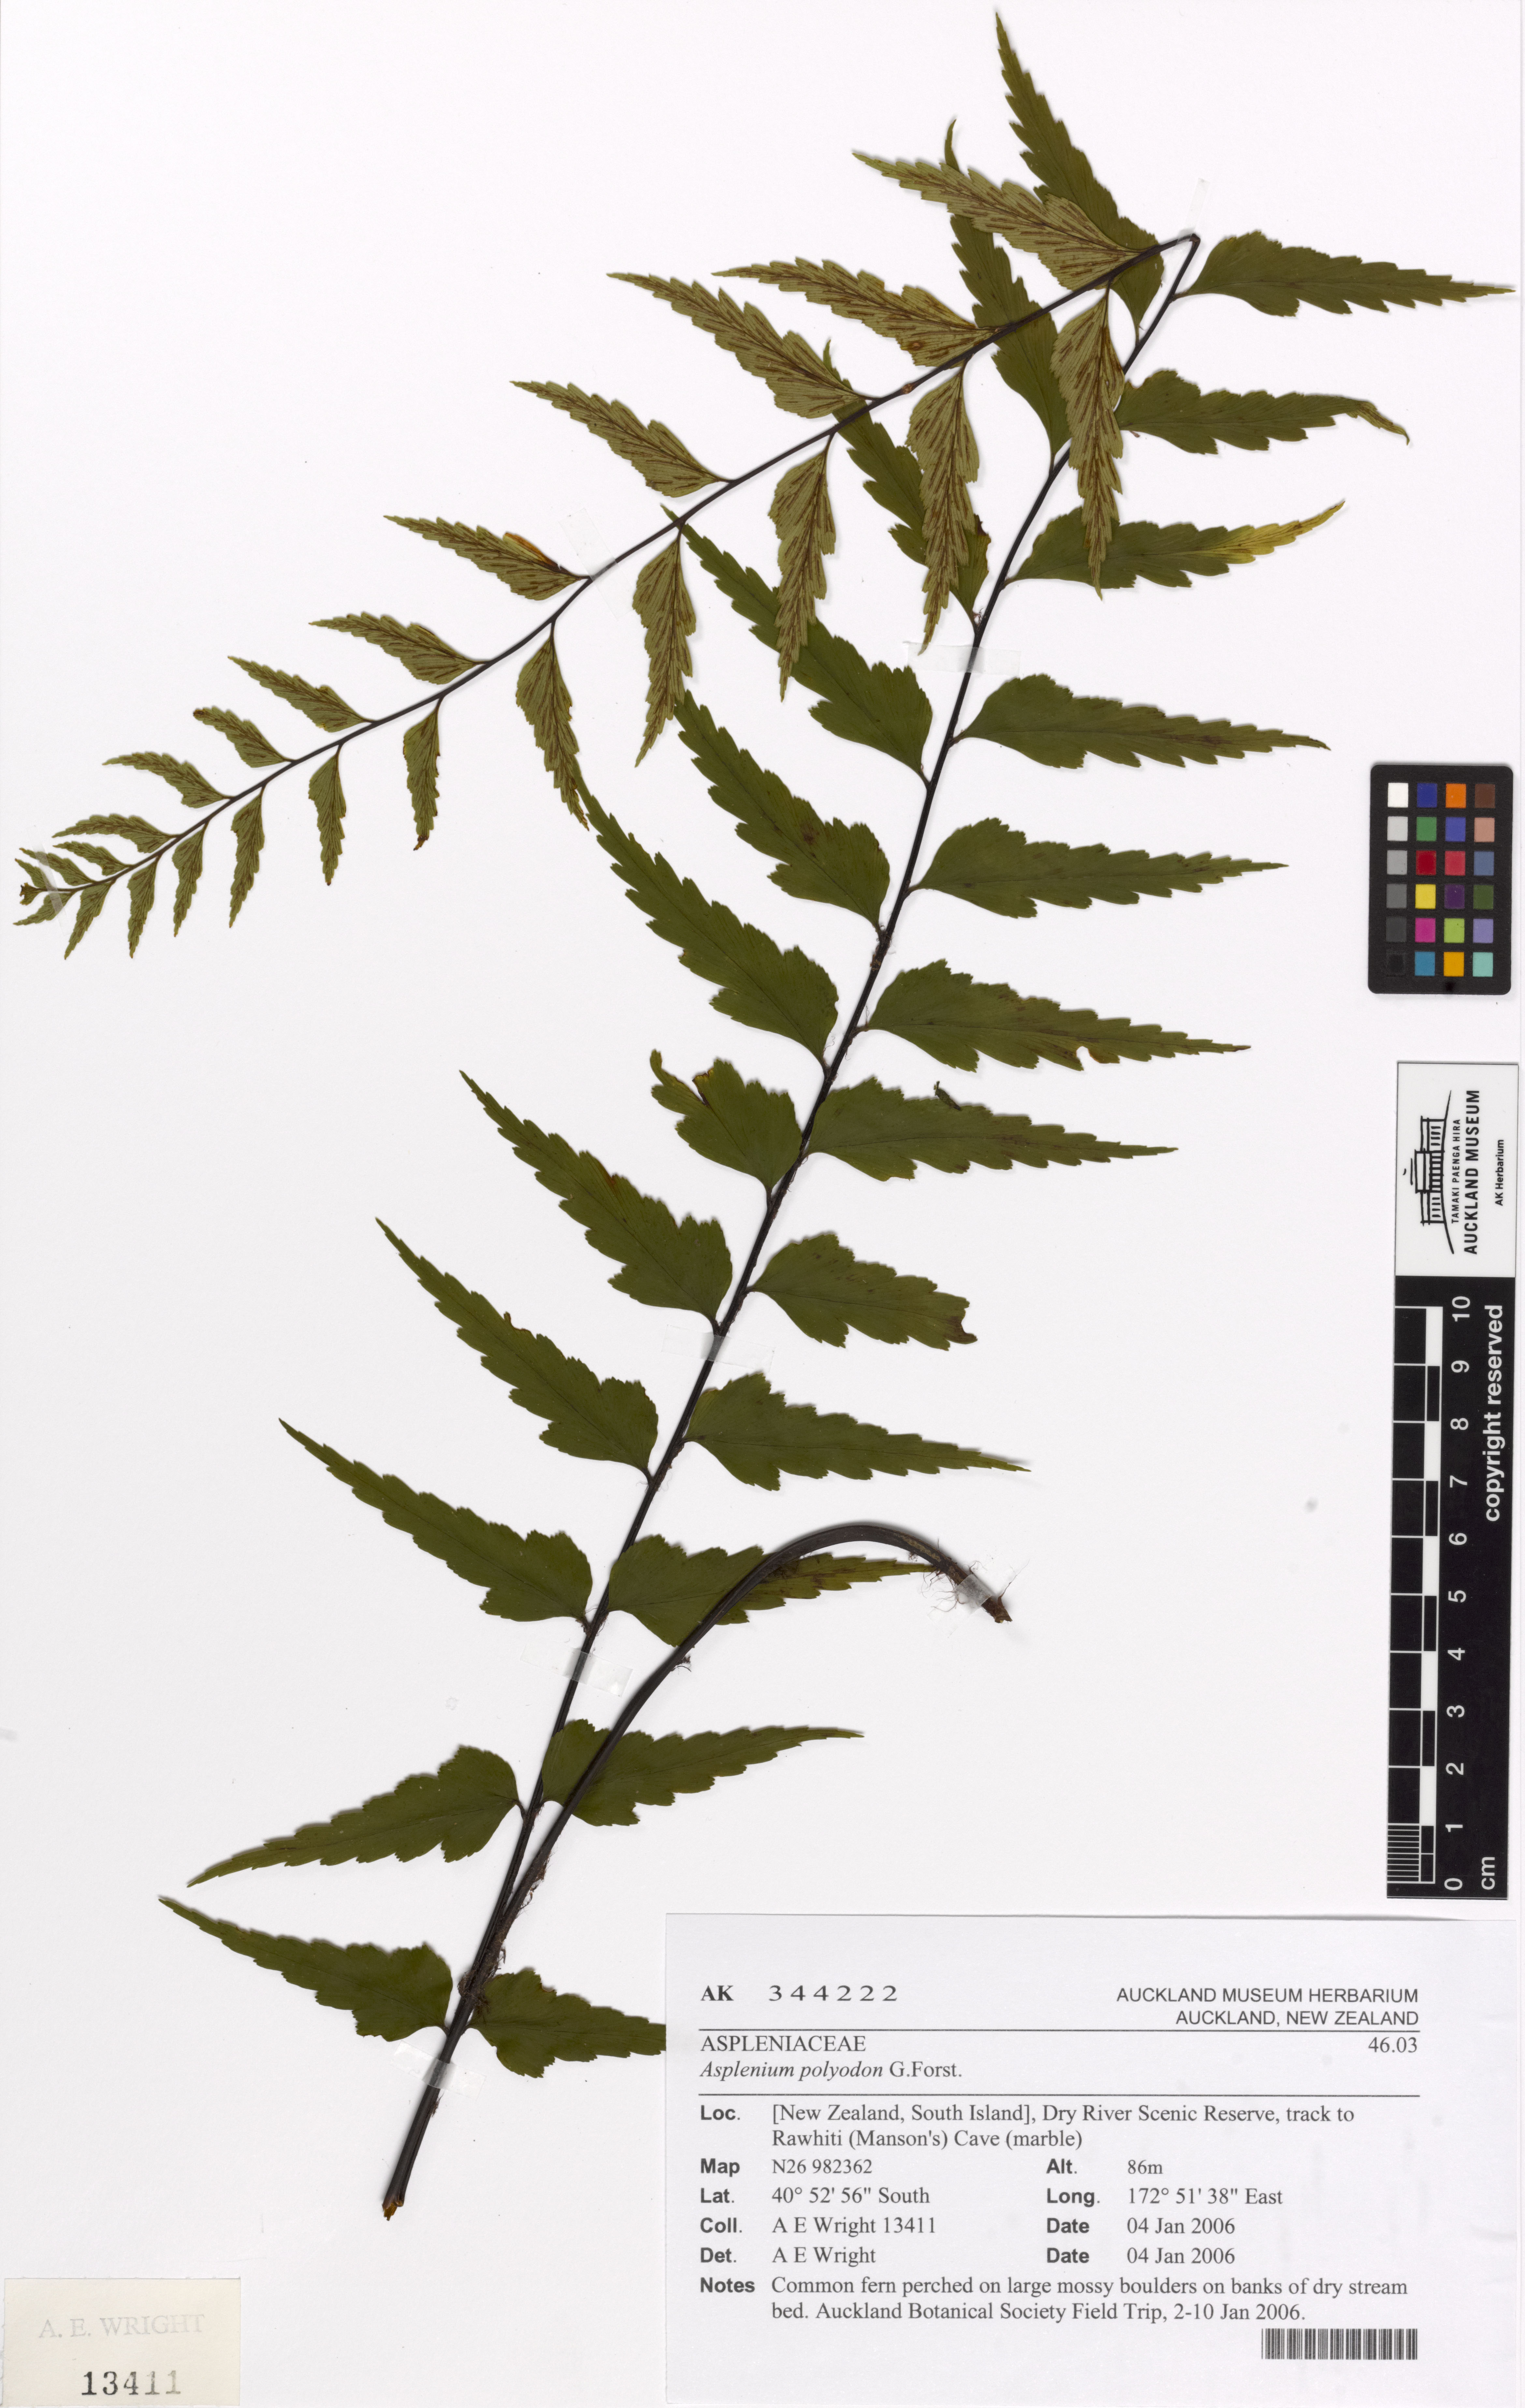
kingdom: Plantae
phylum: Tracheophyta
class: Polypodiopsida
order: Polypodiales
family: Aspleniaceae
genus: Asplenium
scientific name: Asplenium polyodon
